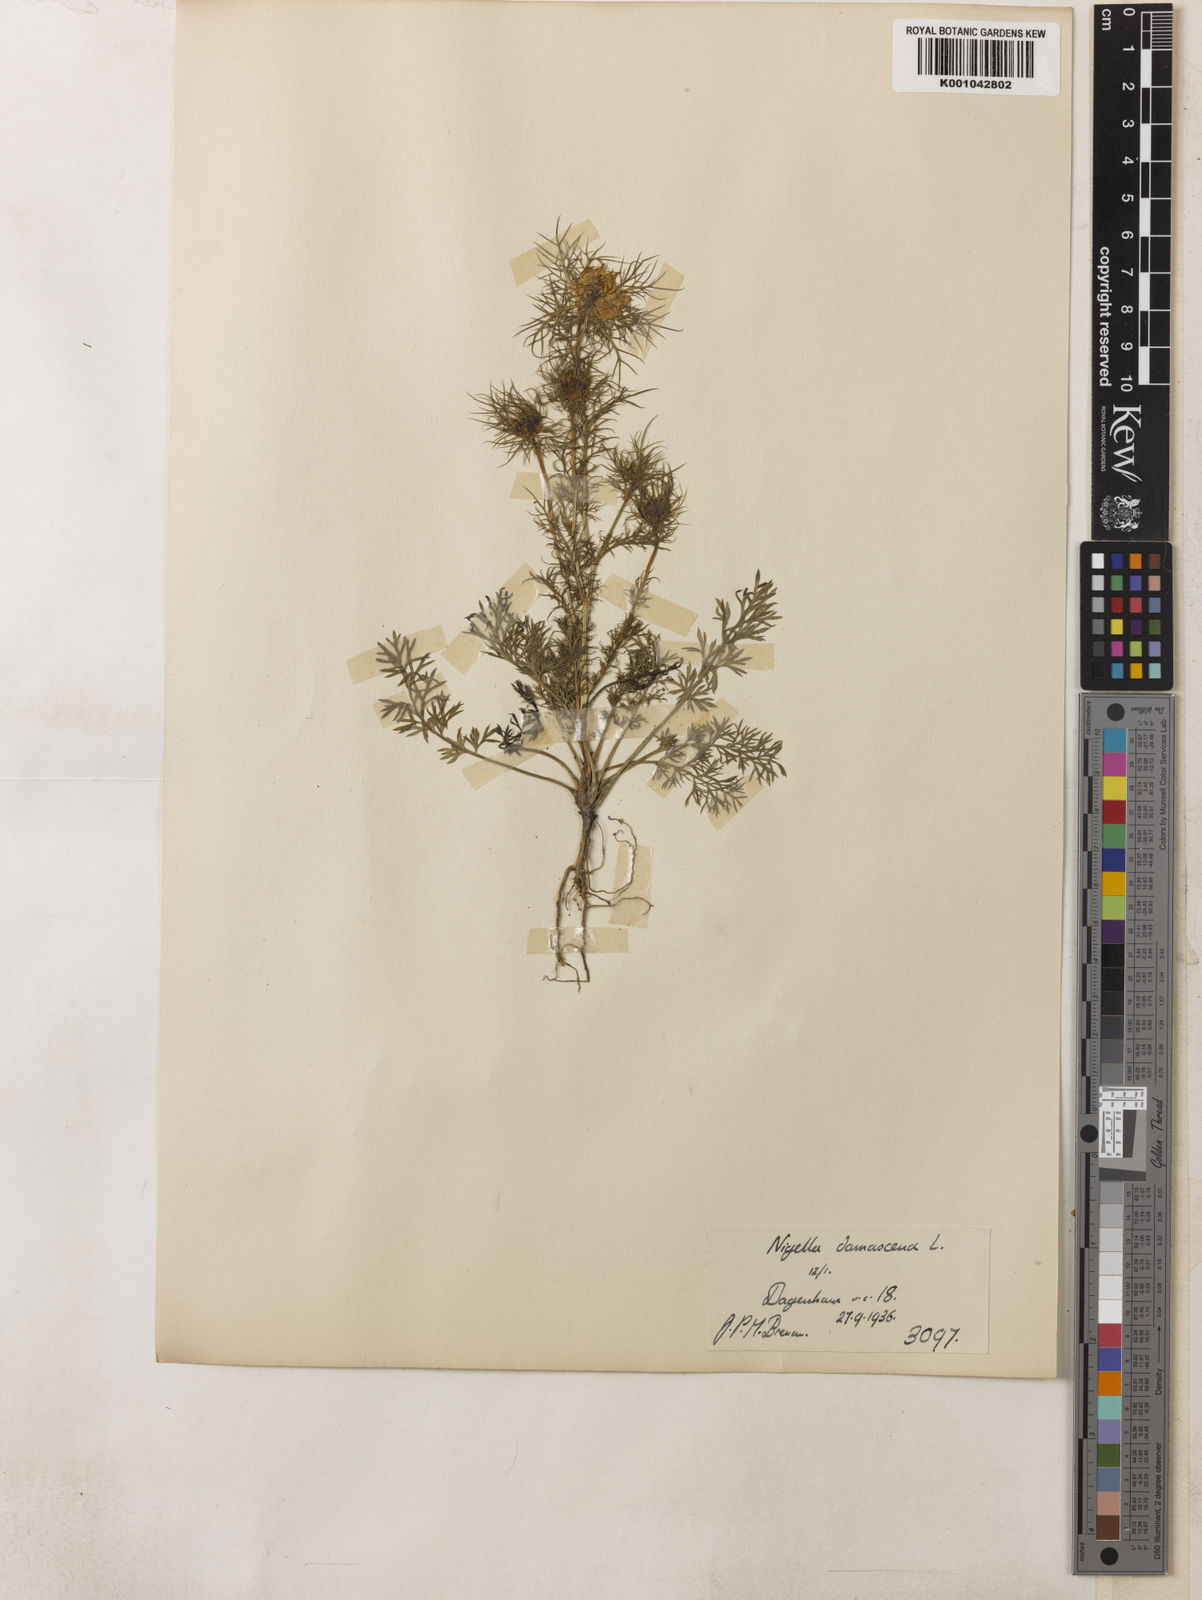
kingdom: Plantae
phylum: Tracheophyta
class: Magnoliopsida
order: Ranunculales
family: Ranunculaceae
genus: Nigella
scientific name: Nigella damascena
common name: Love-in-a-mist
